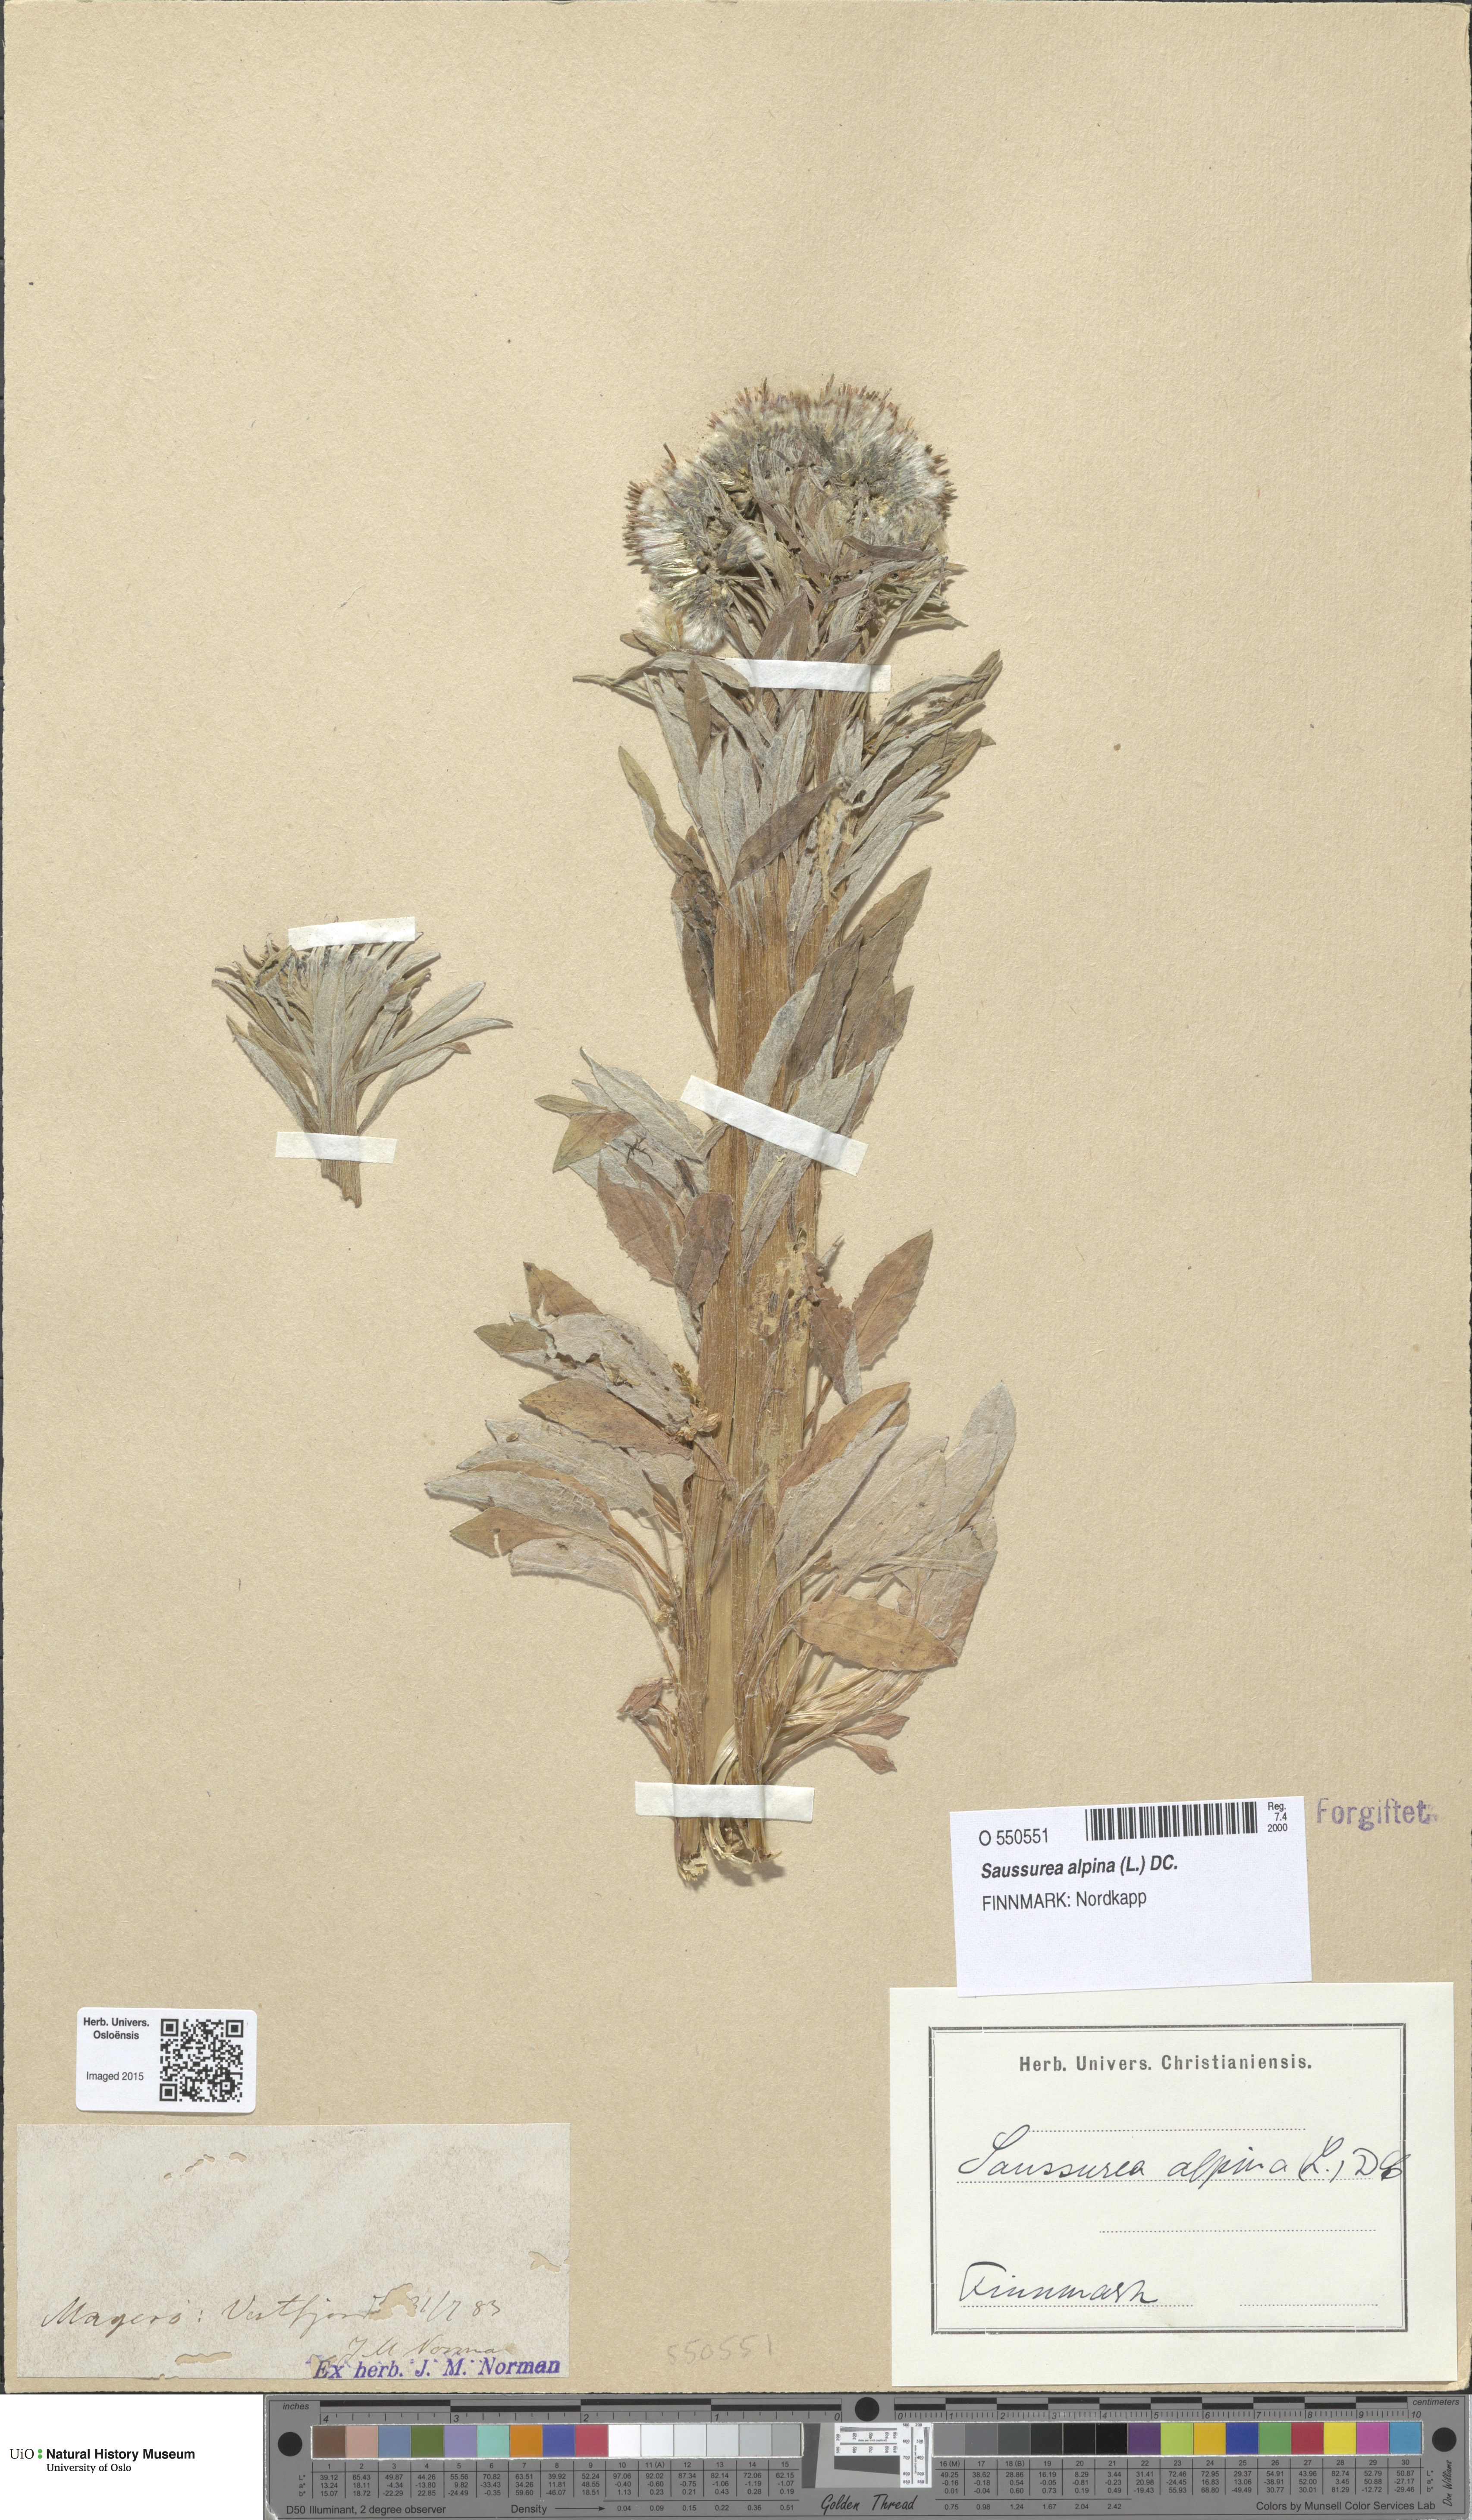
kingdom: Plantae
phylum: Tracheophyta
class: Magnoliopsida
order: Asterales
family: Asteraceae
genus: Saussurea
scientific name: Saussurea alpina
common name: Alpine saw-wort
